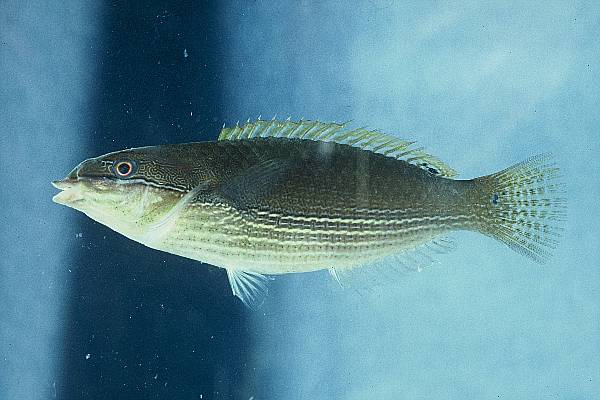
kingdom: Animalia
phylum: Chordata
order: Perciformes
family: Labridae
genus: Stethojulis
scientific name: Stethojulis strigiventer
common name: Three-ribbon wrasse
